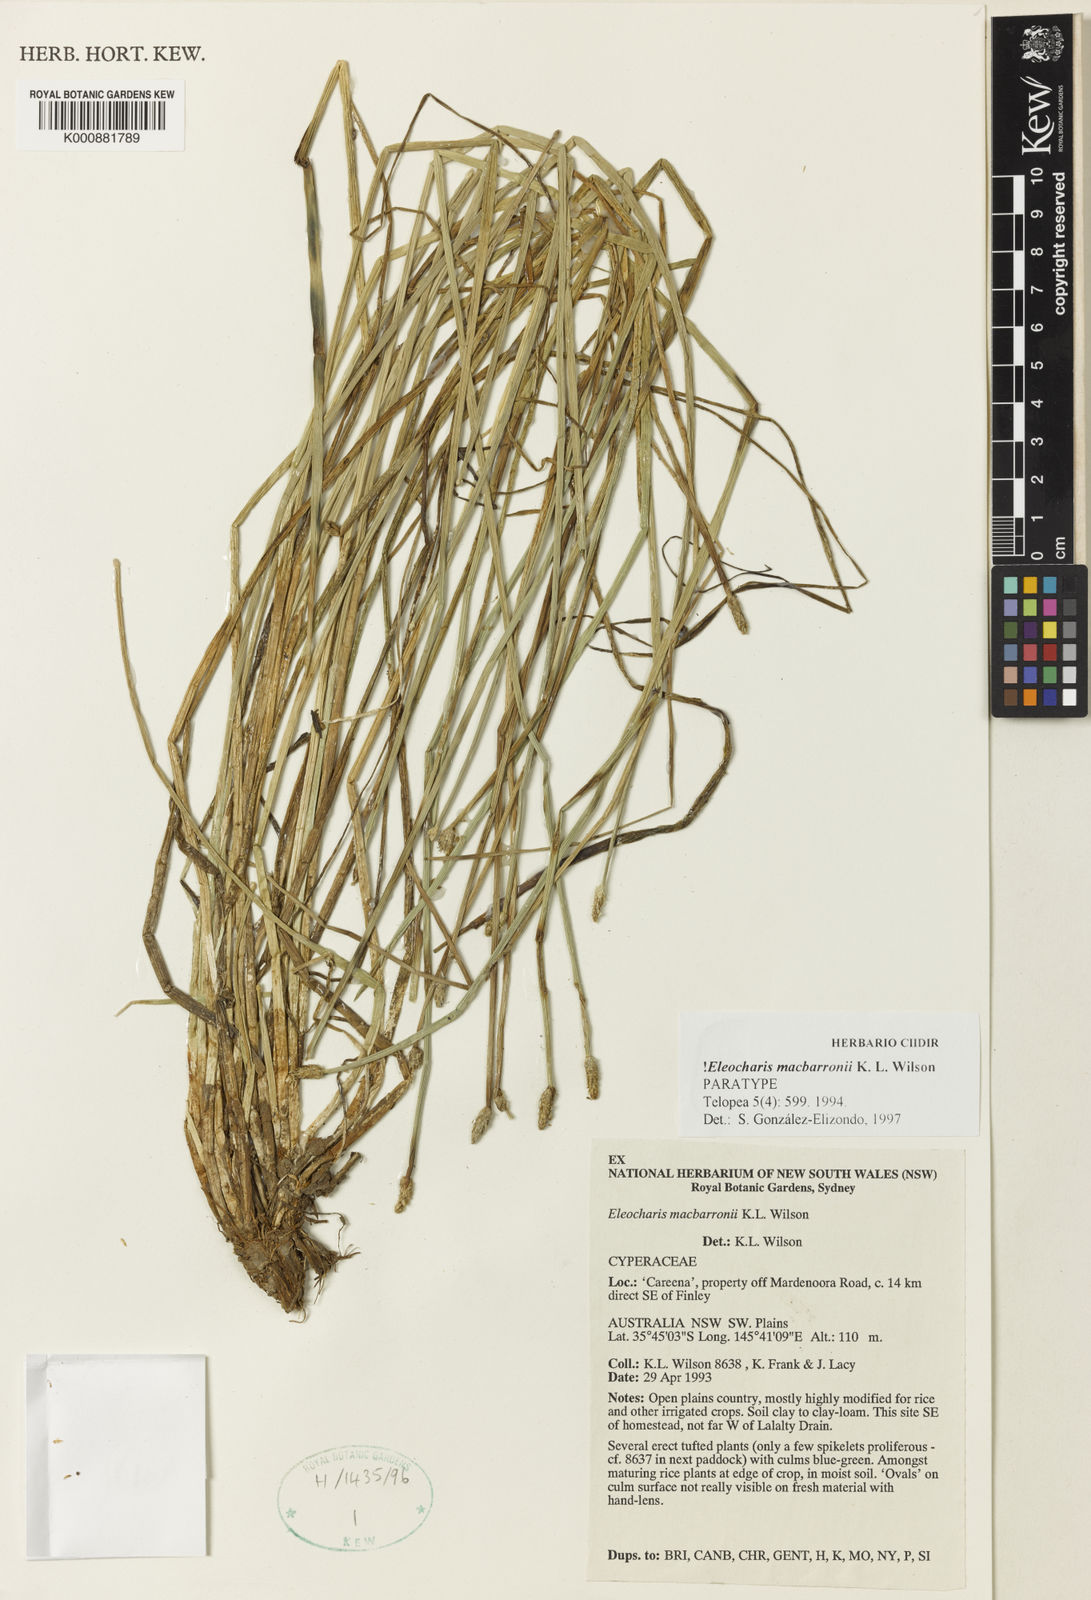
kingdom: Plantae
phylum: Tracheophyta
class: Liliopsida
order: Poales
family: Cyperaceae
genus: Eleocharis
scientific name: Eleocharis macbarronii
